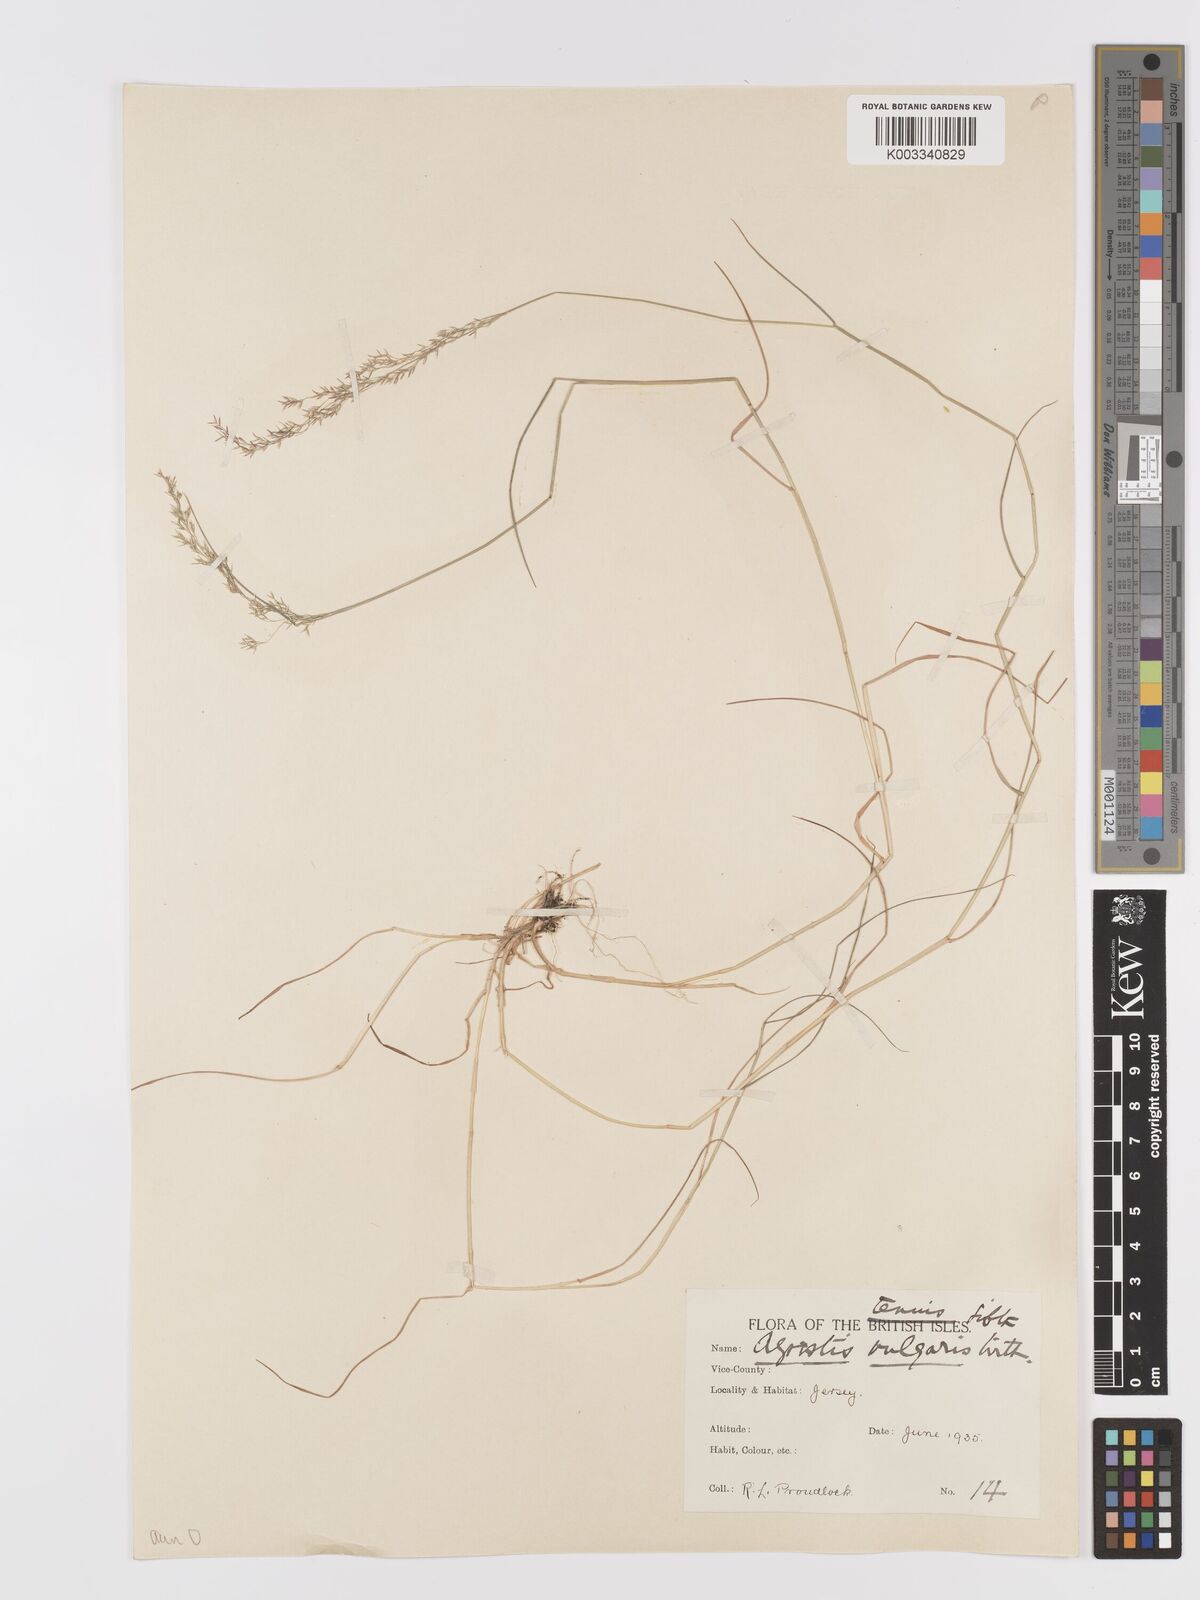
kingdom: Plantae
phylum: Tracheophyta
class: Liliopsida
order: Poales
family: Poaceae
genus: Agrostis
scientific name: Agrostis capillaris
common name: Colonial bentgrass
